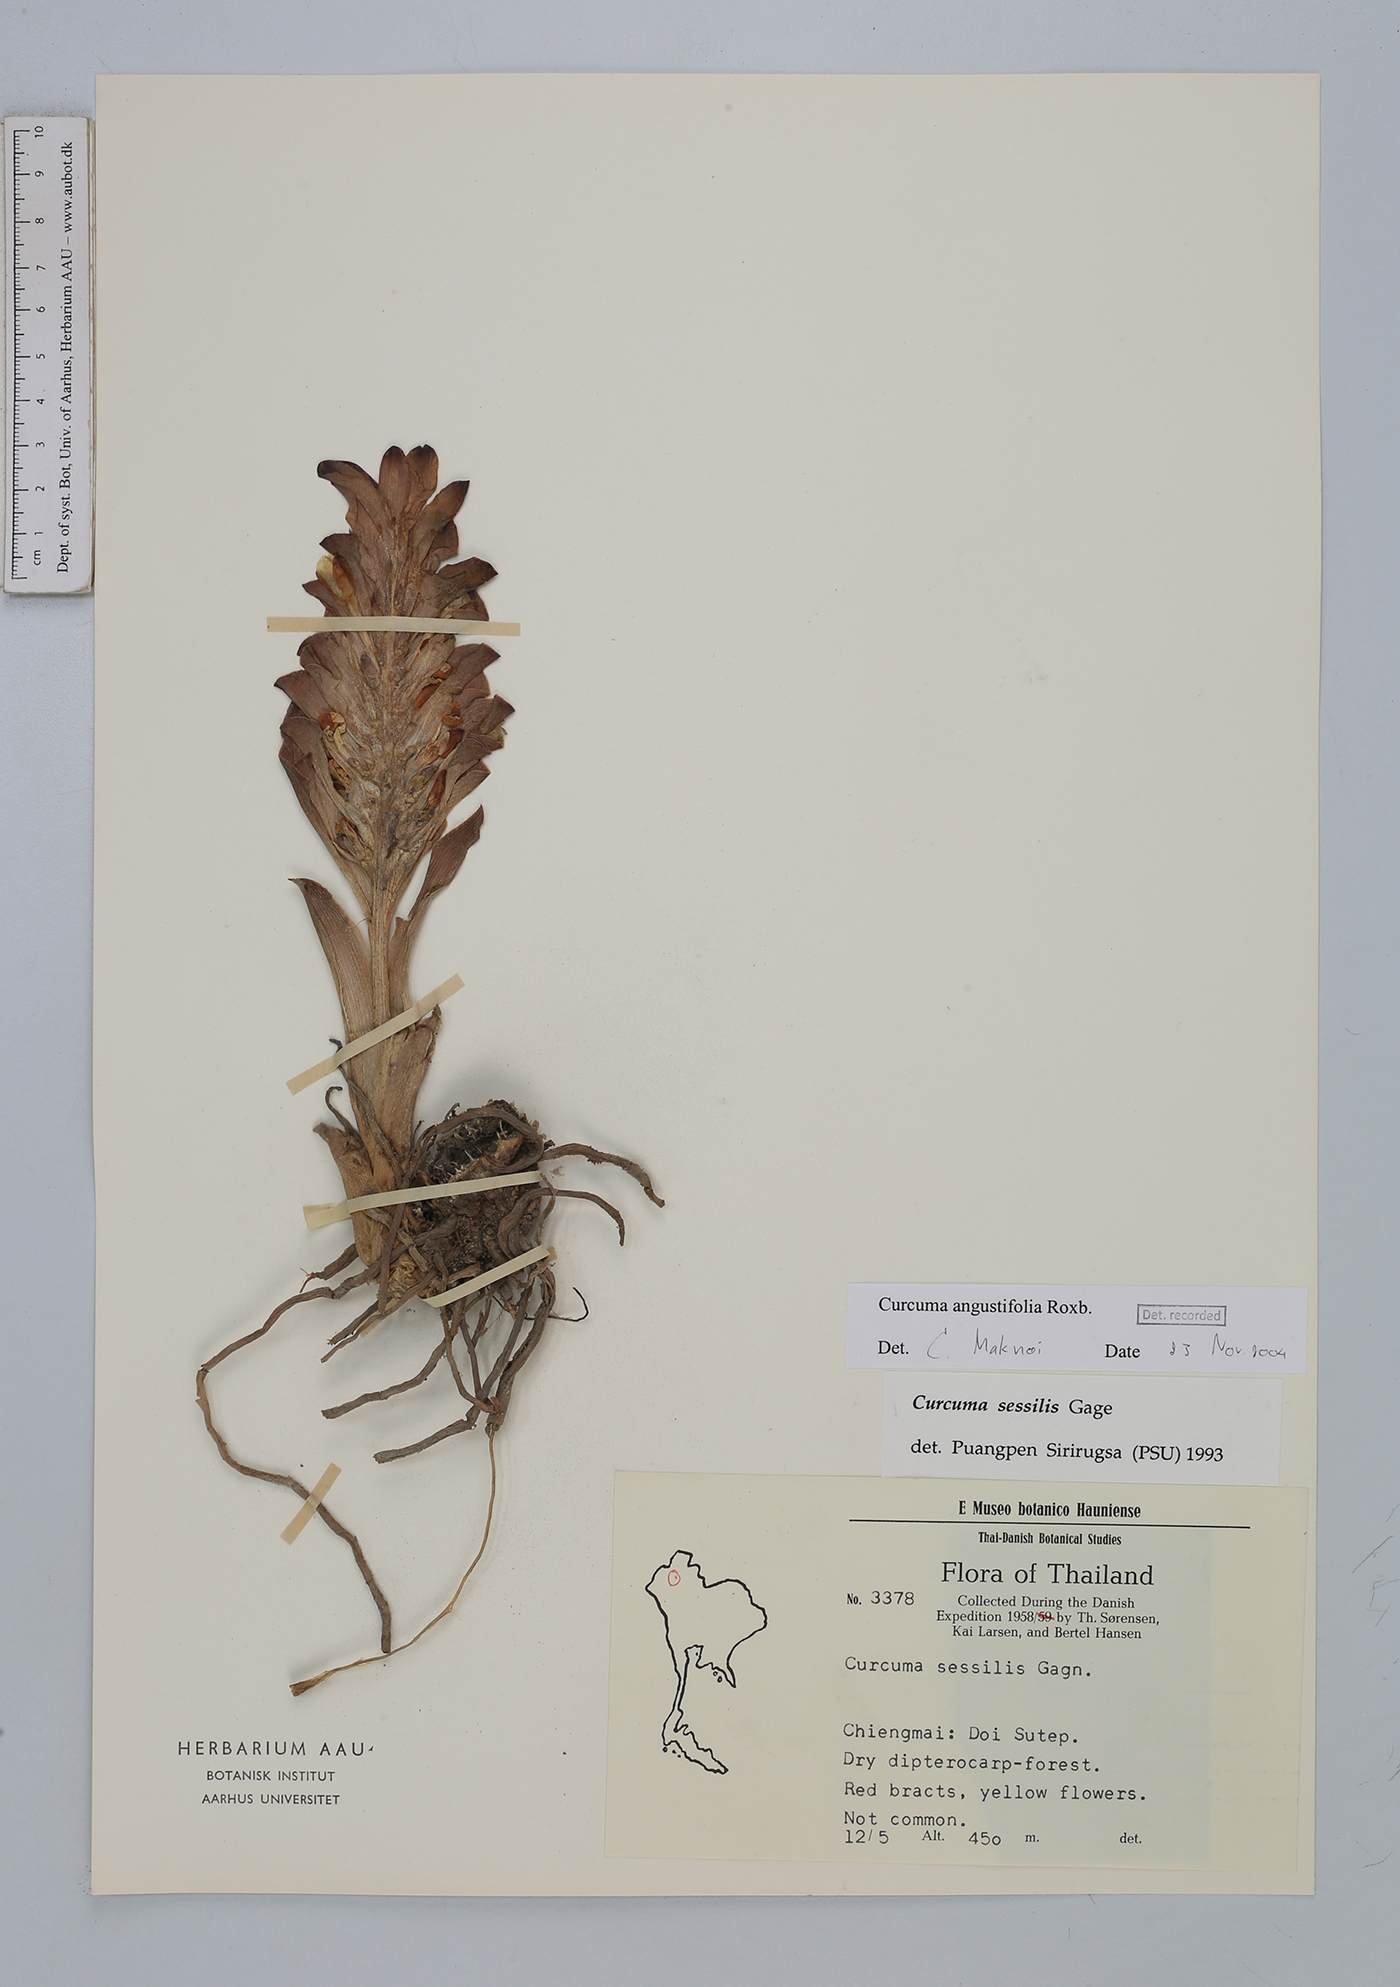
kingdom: Plantae
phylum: Tracheophyta
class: Liliopsida
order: Zingiberales
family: Zingiberaceae
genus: Curcuma
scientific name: Curcuma angustifolia
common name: East indian arrowroot
